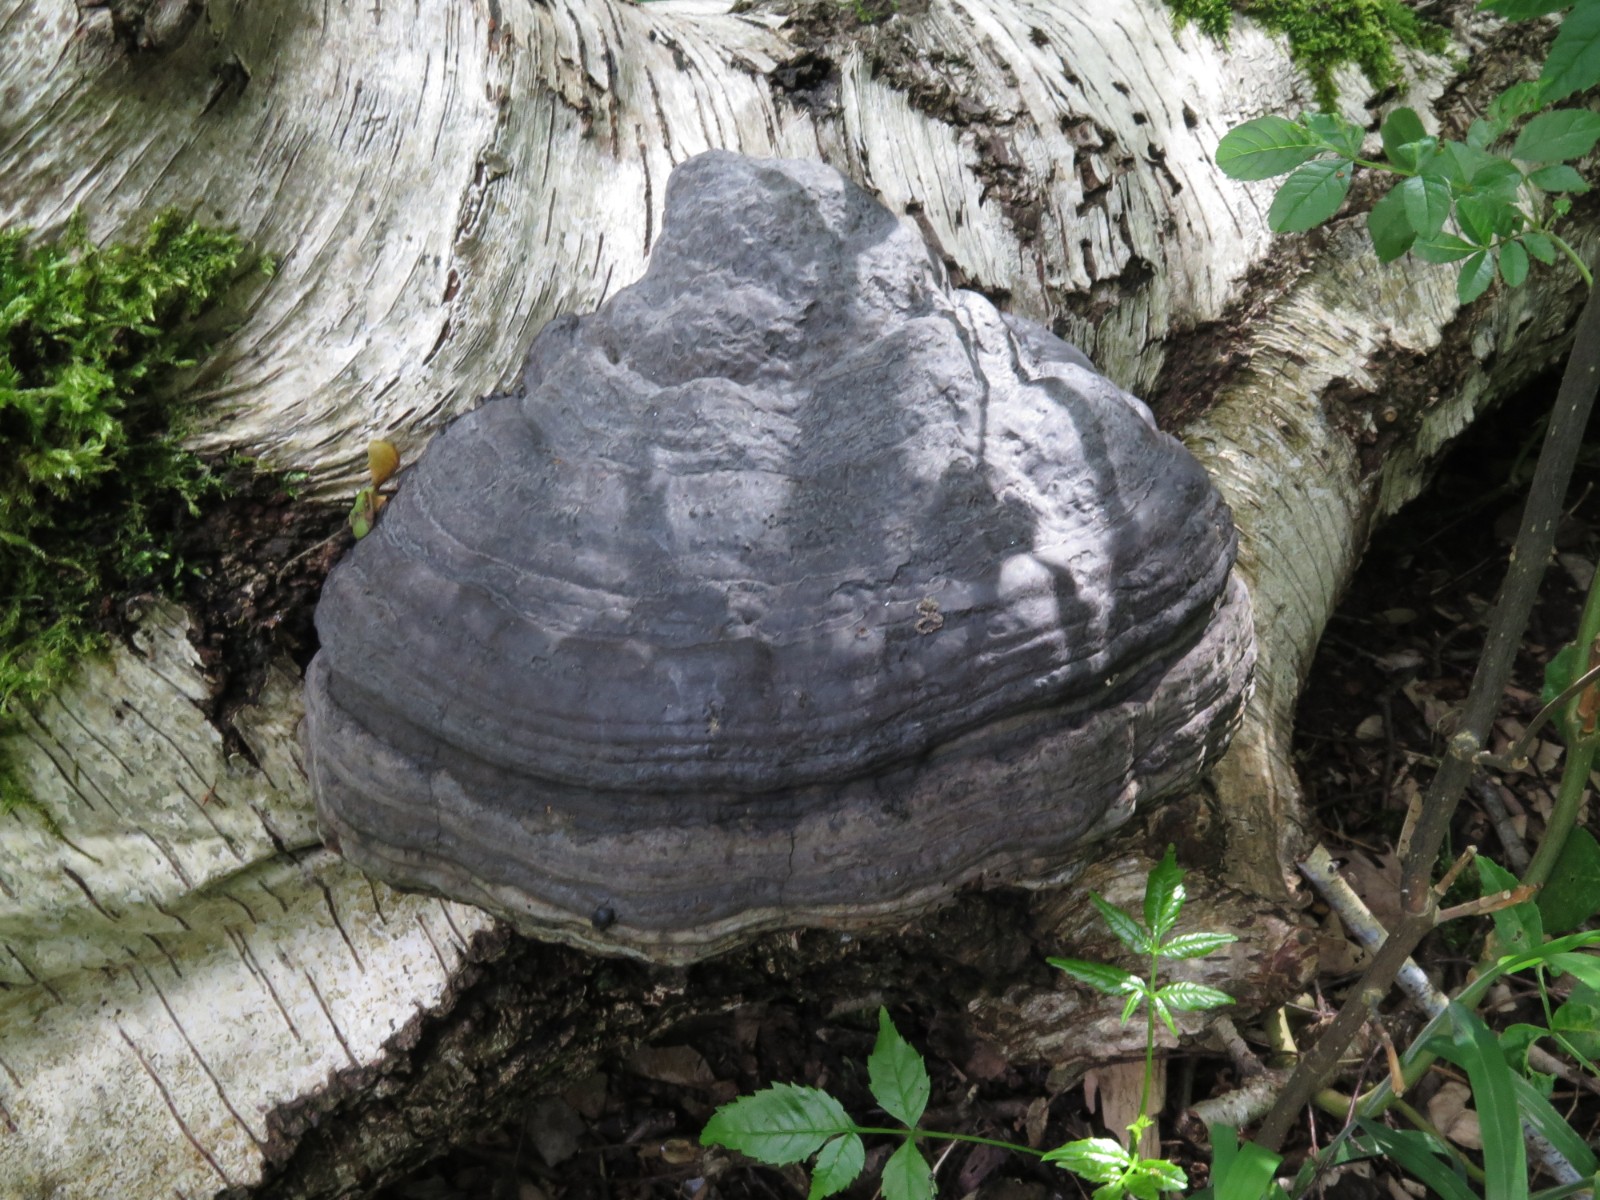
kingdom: Fungi
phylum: Basidiomycota
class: Agaricomycetes
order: Polyporales
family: Polyporaceae
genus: Fomes
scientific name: Fomes fomentarius
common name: tøndersvamp
